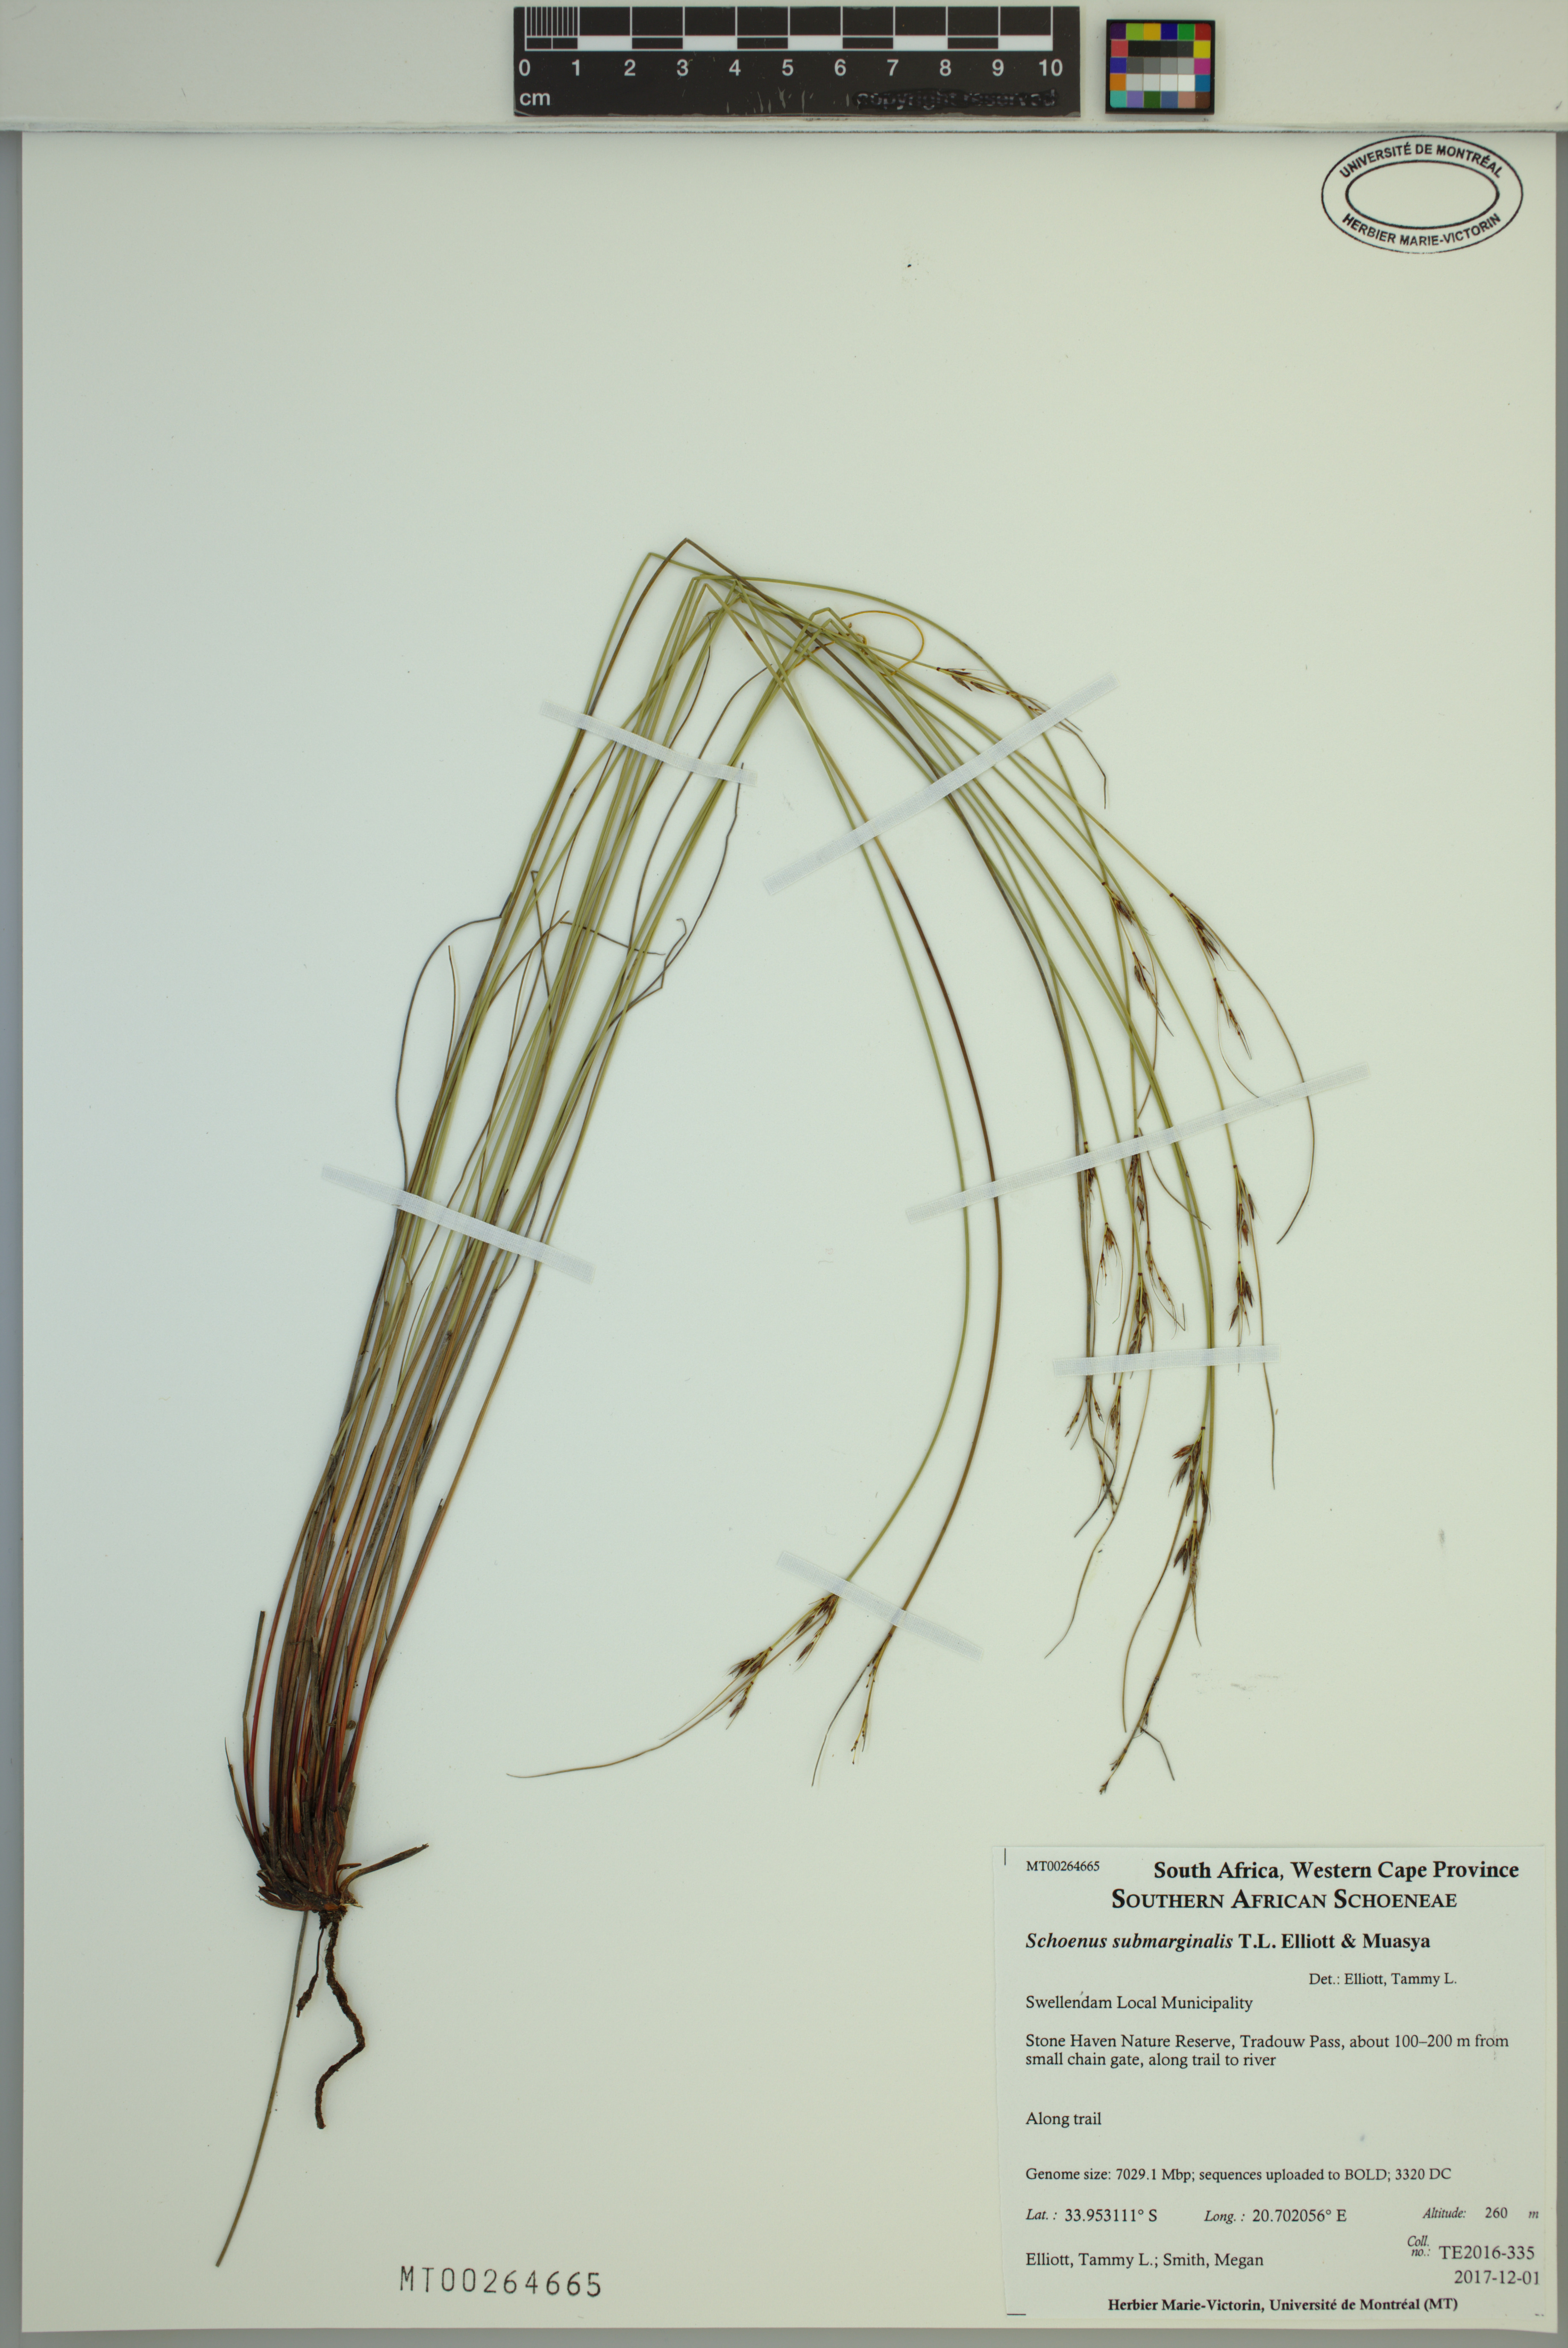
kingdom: Plantae
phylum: Tracheophyta
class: Liliopsida
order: Poales
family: Cyperaceae
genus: Schoenus
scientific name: Schoenus submarginalis
